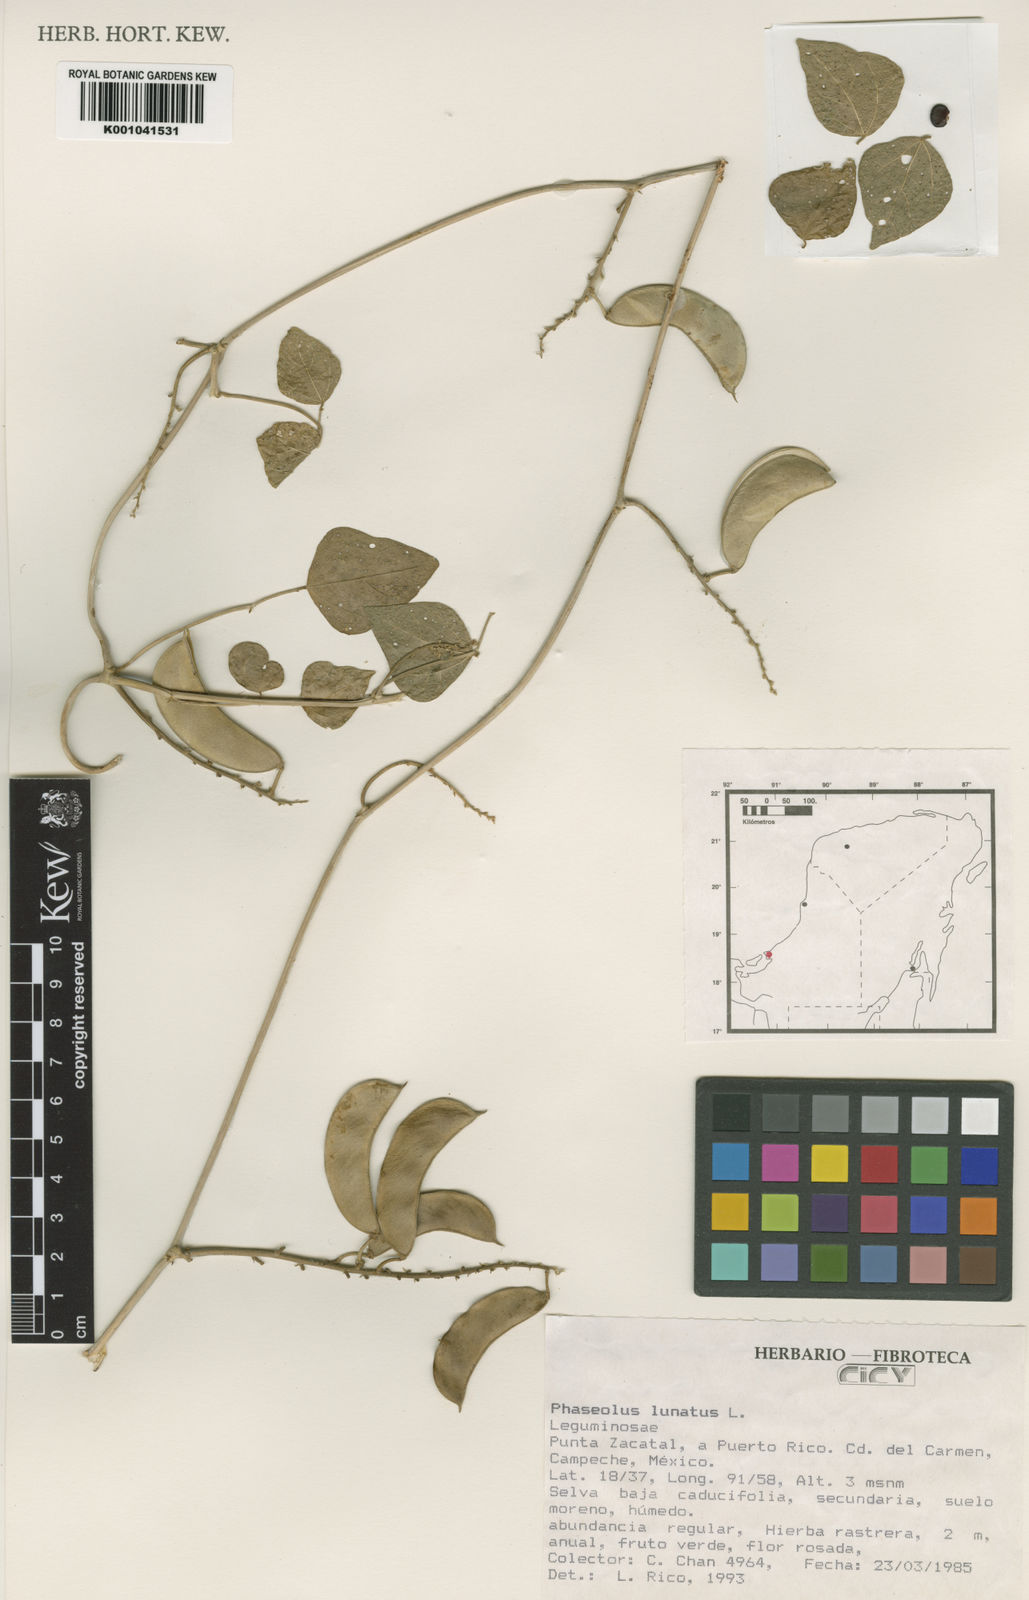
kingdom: Plantae
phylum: Tracheophyta
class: Magnoliopsida
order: Fabales
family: Fabaceae
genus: Phaseolus
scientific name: Phaseolus lunatus
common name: Sieva bean
